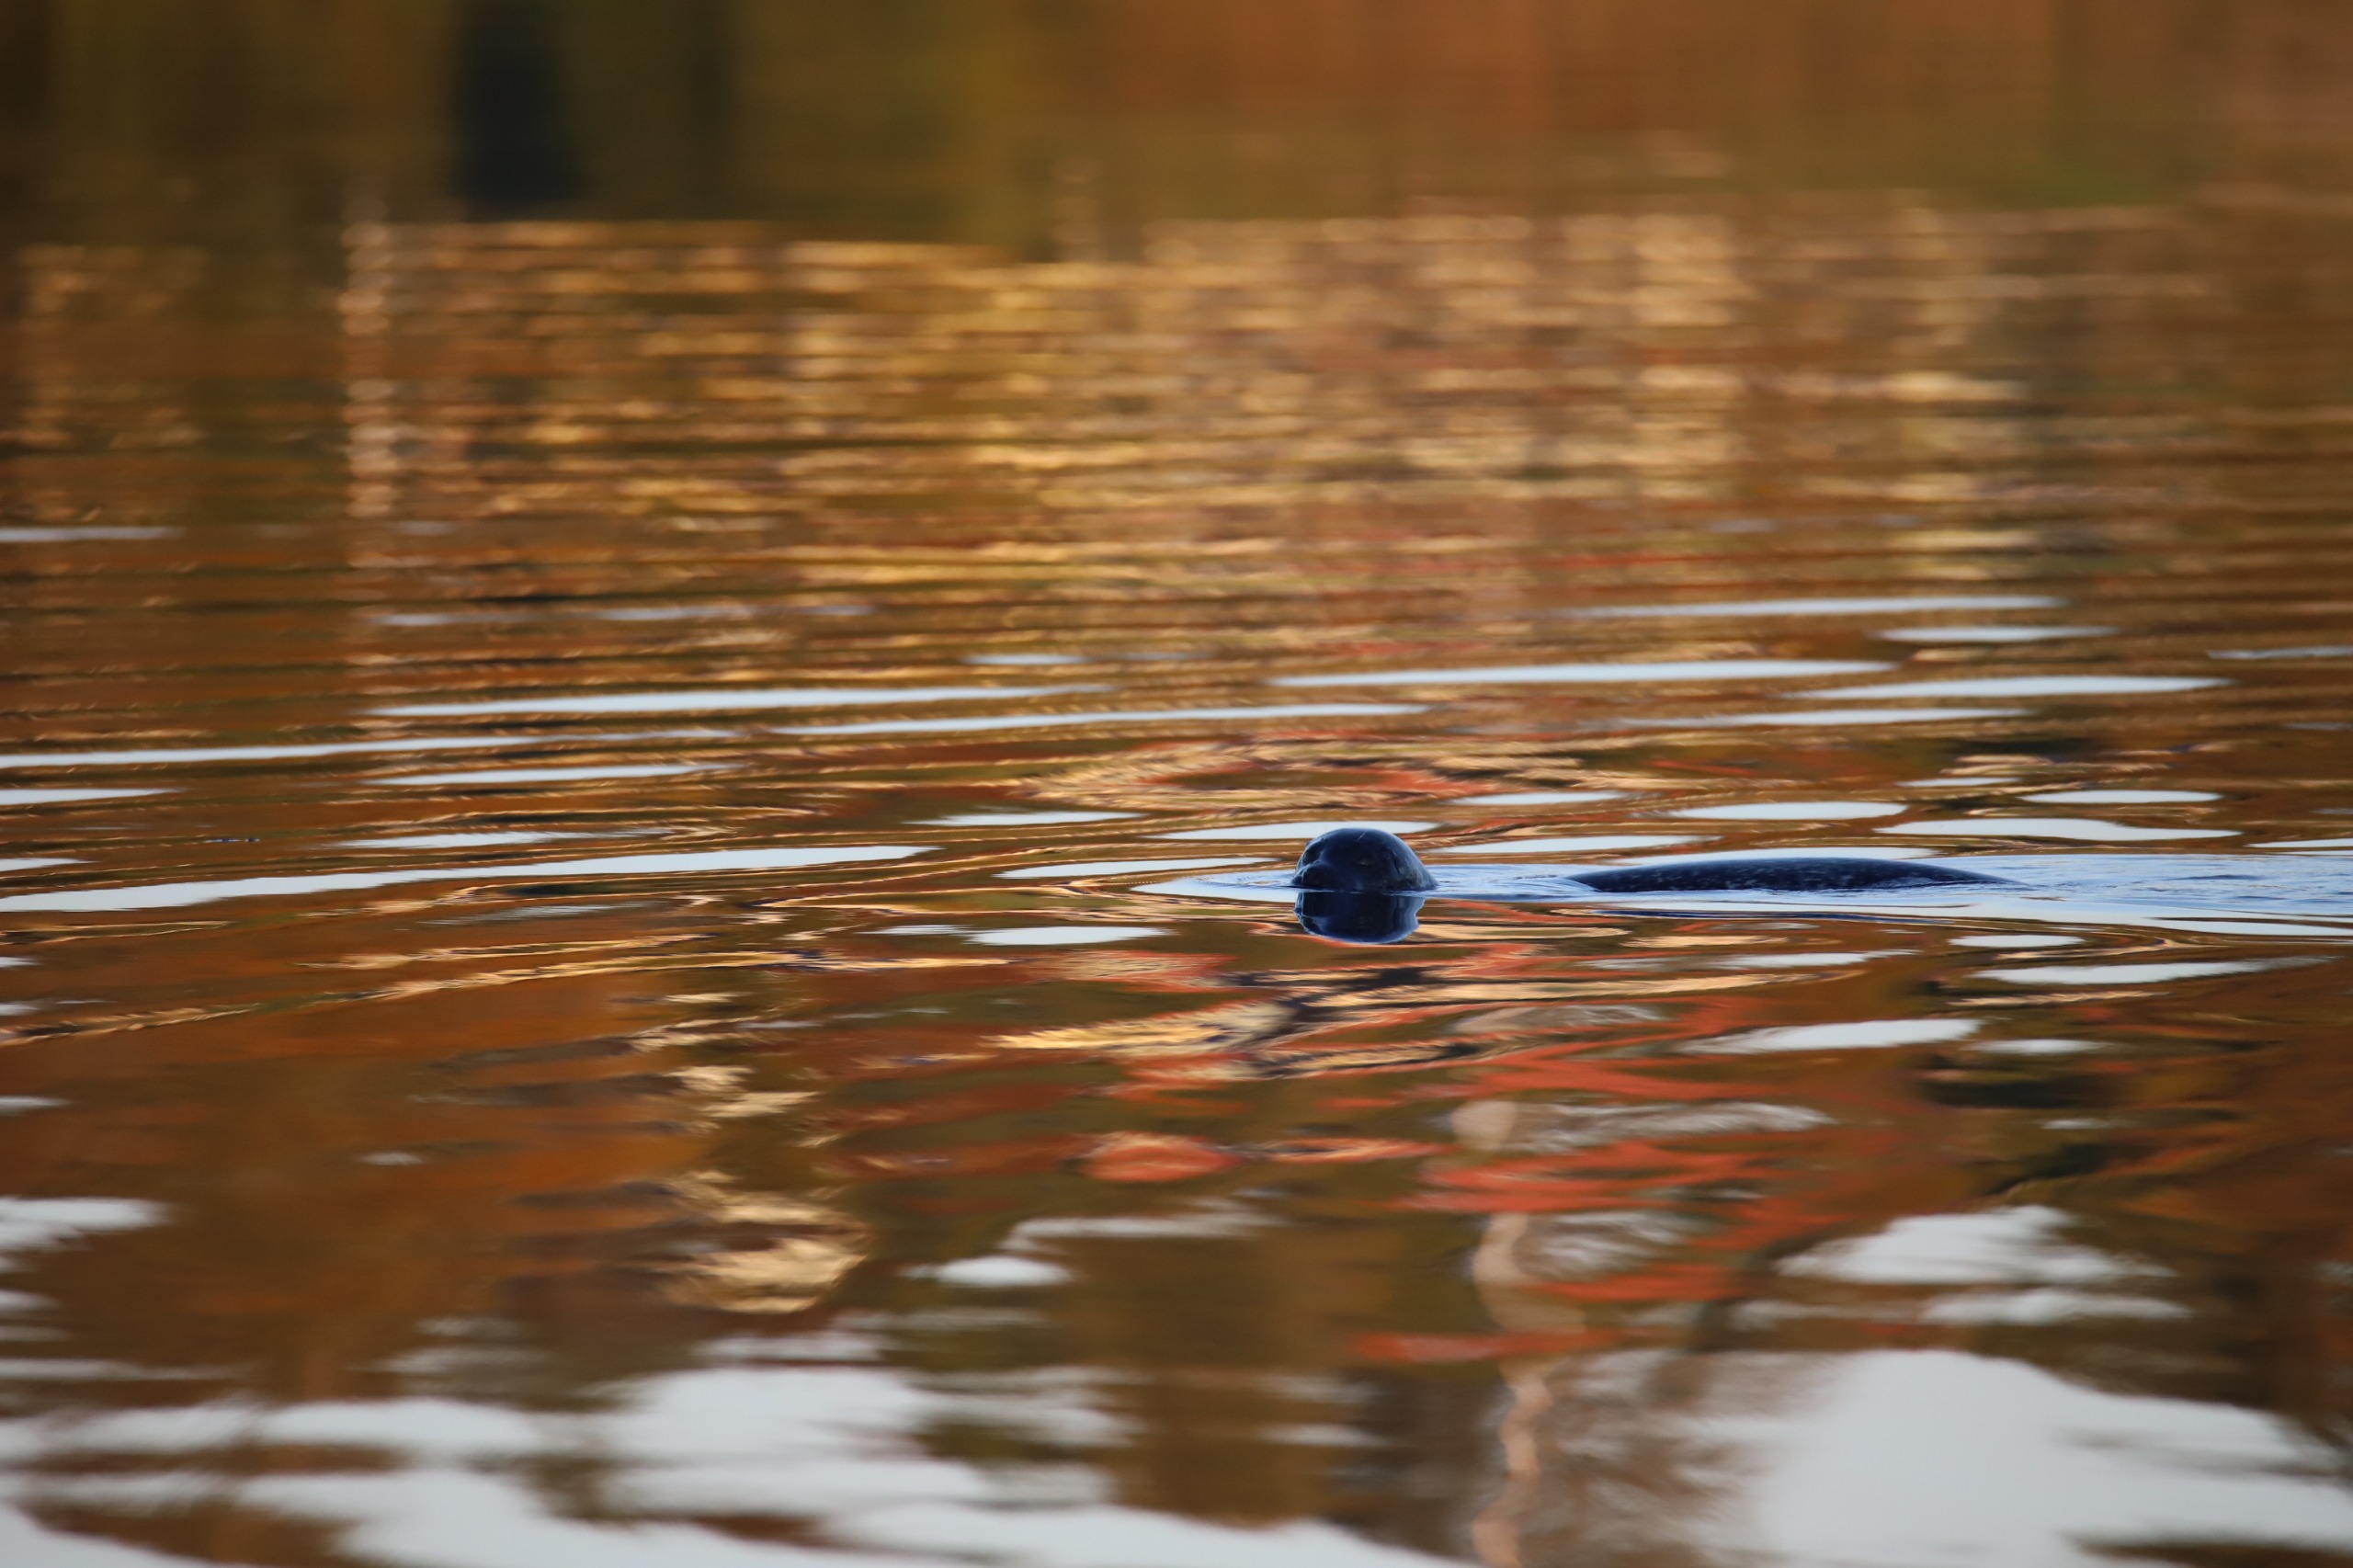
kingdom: Animalia
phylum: Chordata
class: Mammalia
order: Carnivora
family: Phocidae
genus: Phoca
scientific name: Phoca vitulina
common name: Spættet sæl
